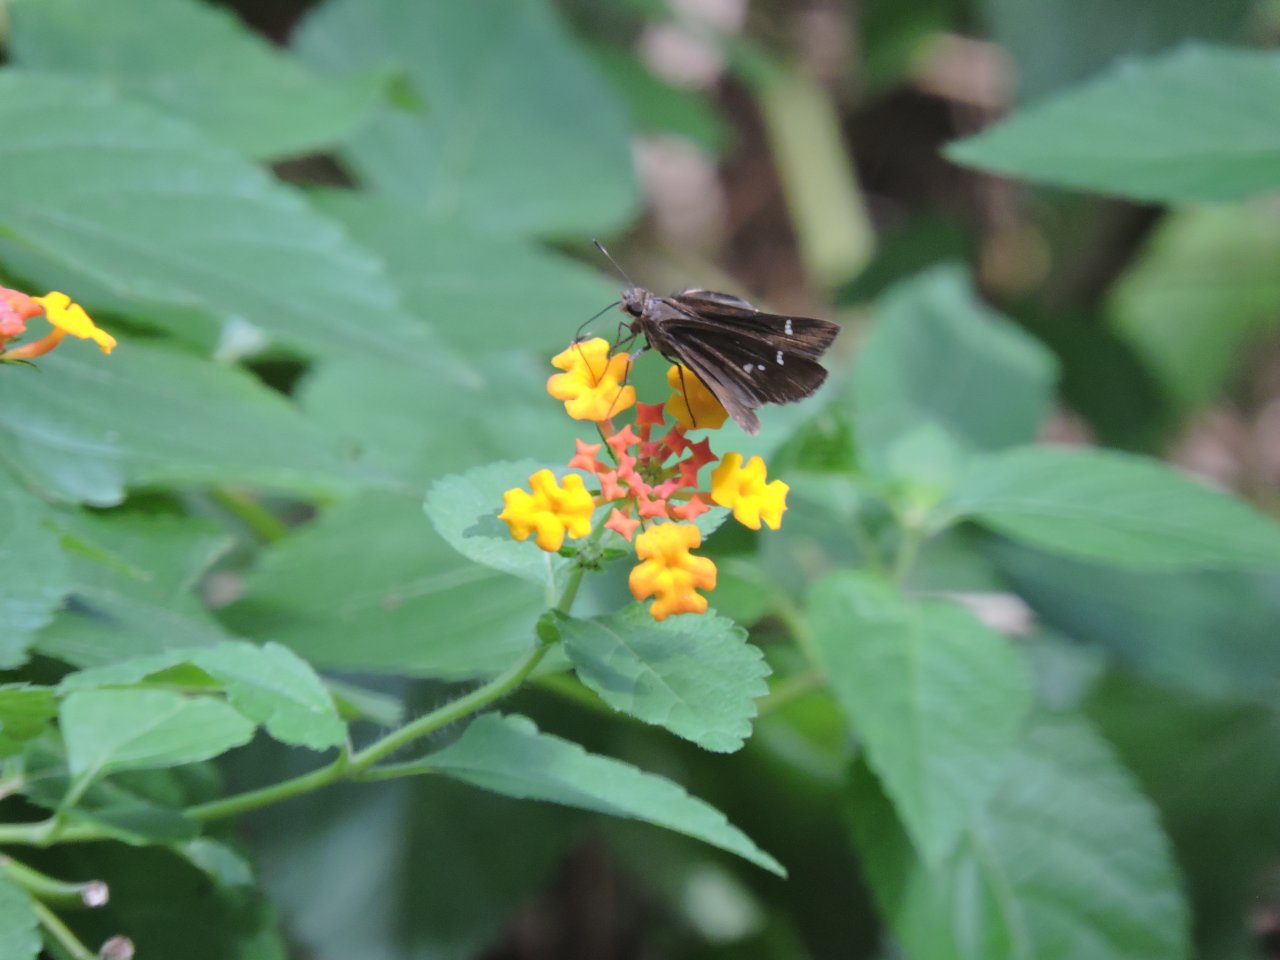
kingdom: Animalia
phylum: Arthropoda
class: Insecta
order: Lepidoptera
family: Hesperiidae
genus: Lerema
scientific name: Lerema accius
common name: Clouded Skipper
